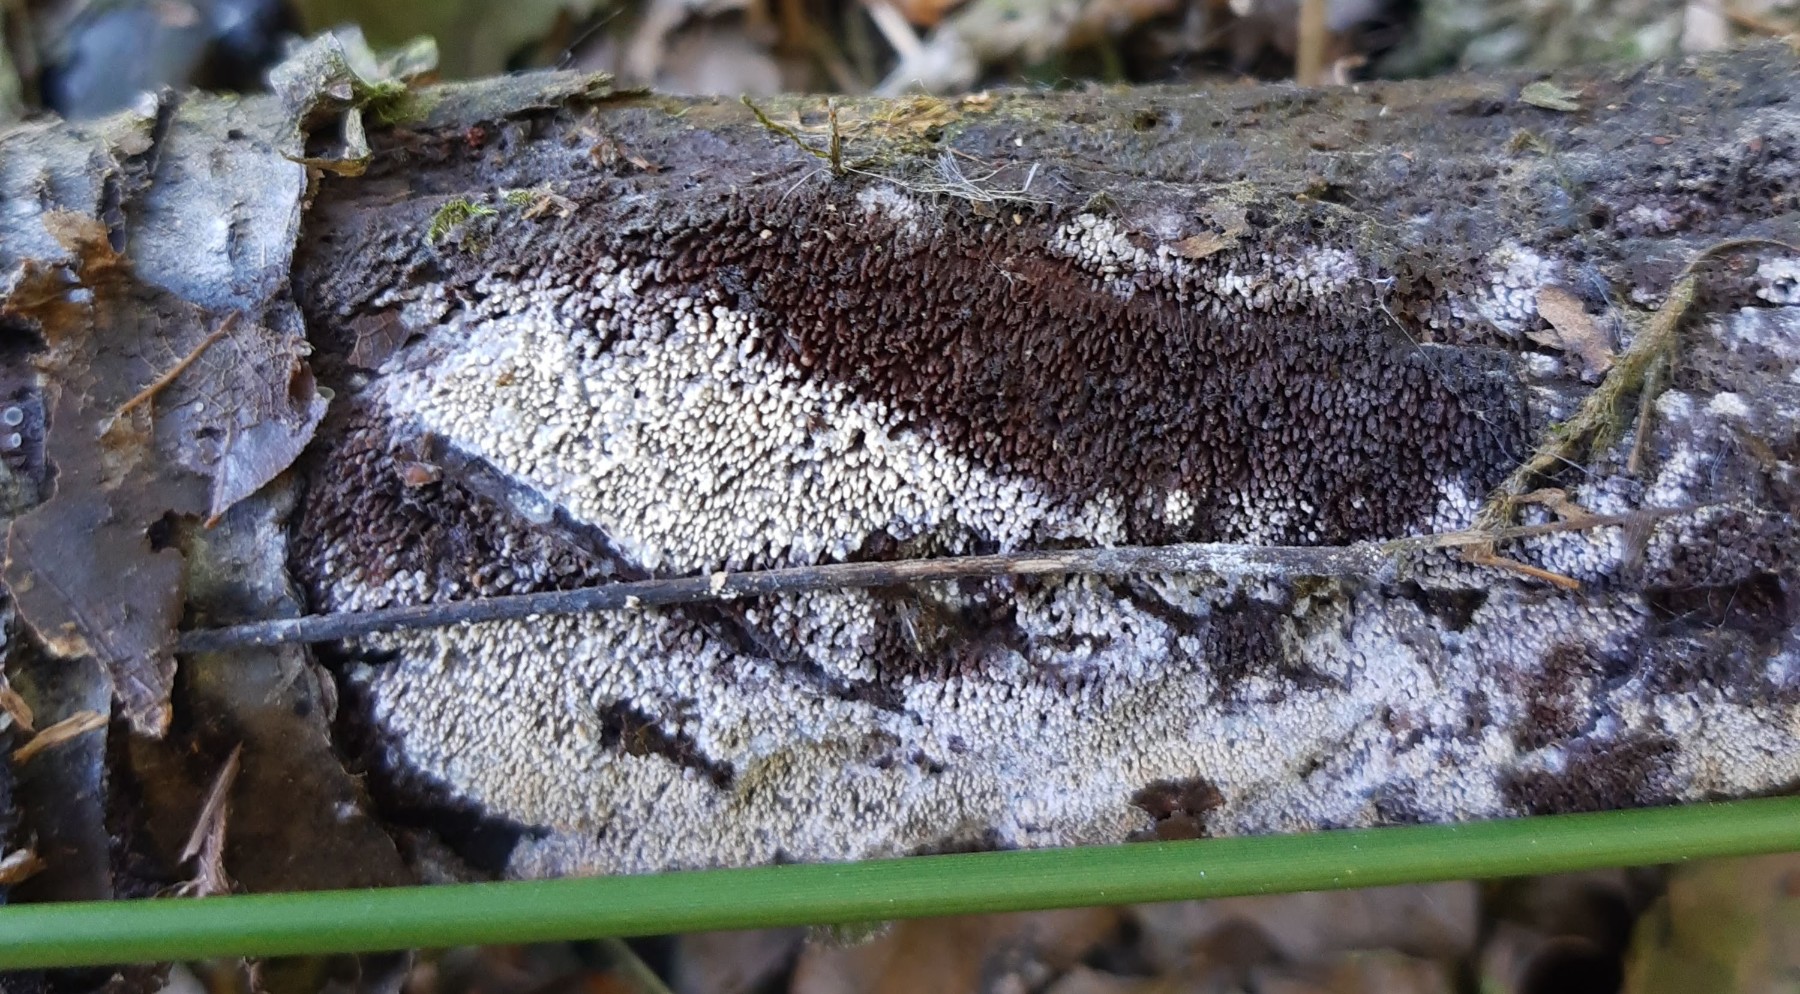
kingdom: Fungi
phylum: Basidiomycota
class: Agaricomycetes
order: Polyporales
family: Meruliaceae
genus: Mycoacia
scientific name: Mycoacia fuscoatra
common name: mørk vokspig
